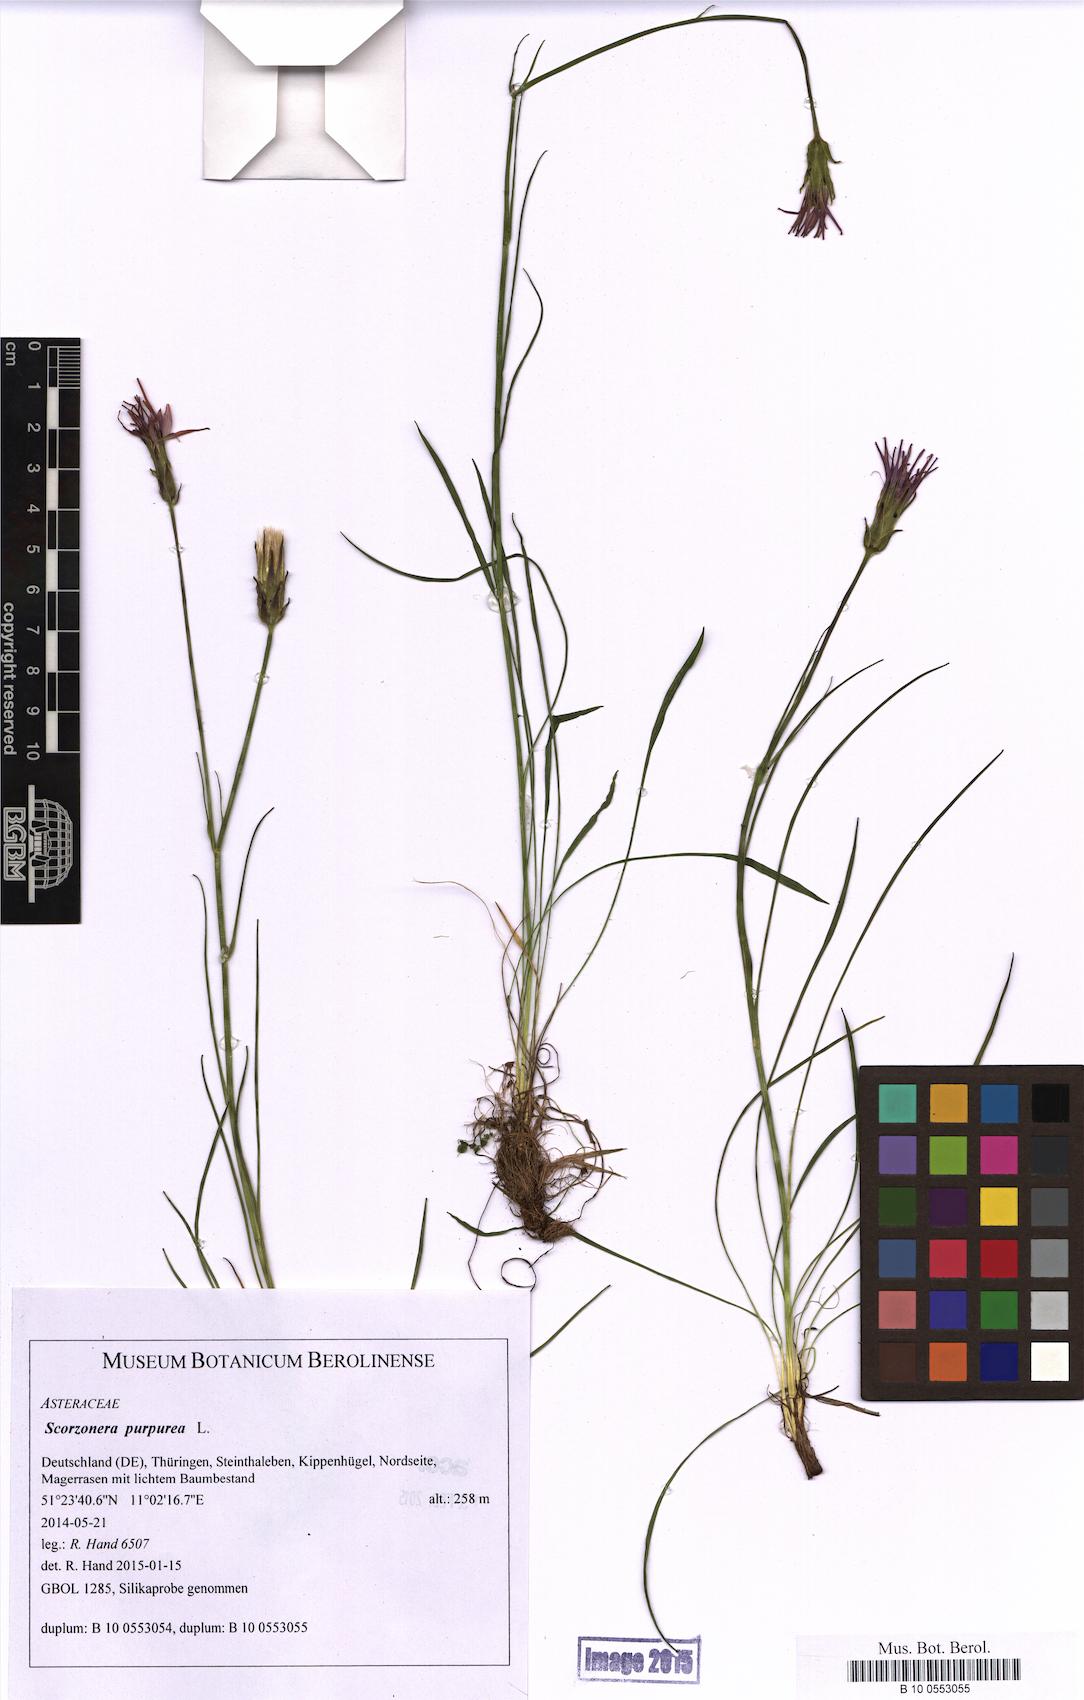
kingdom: Plantae
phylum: Tracheophyta
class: Magnoliopsida
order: Asterales
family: Asteraceae
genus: Scorzonera
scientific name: Scorzonera purpurea
